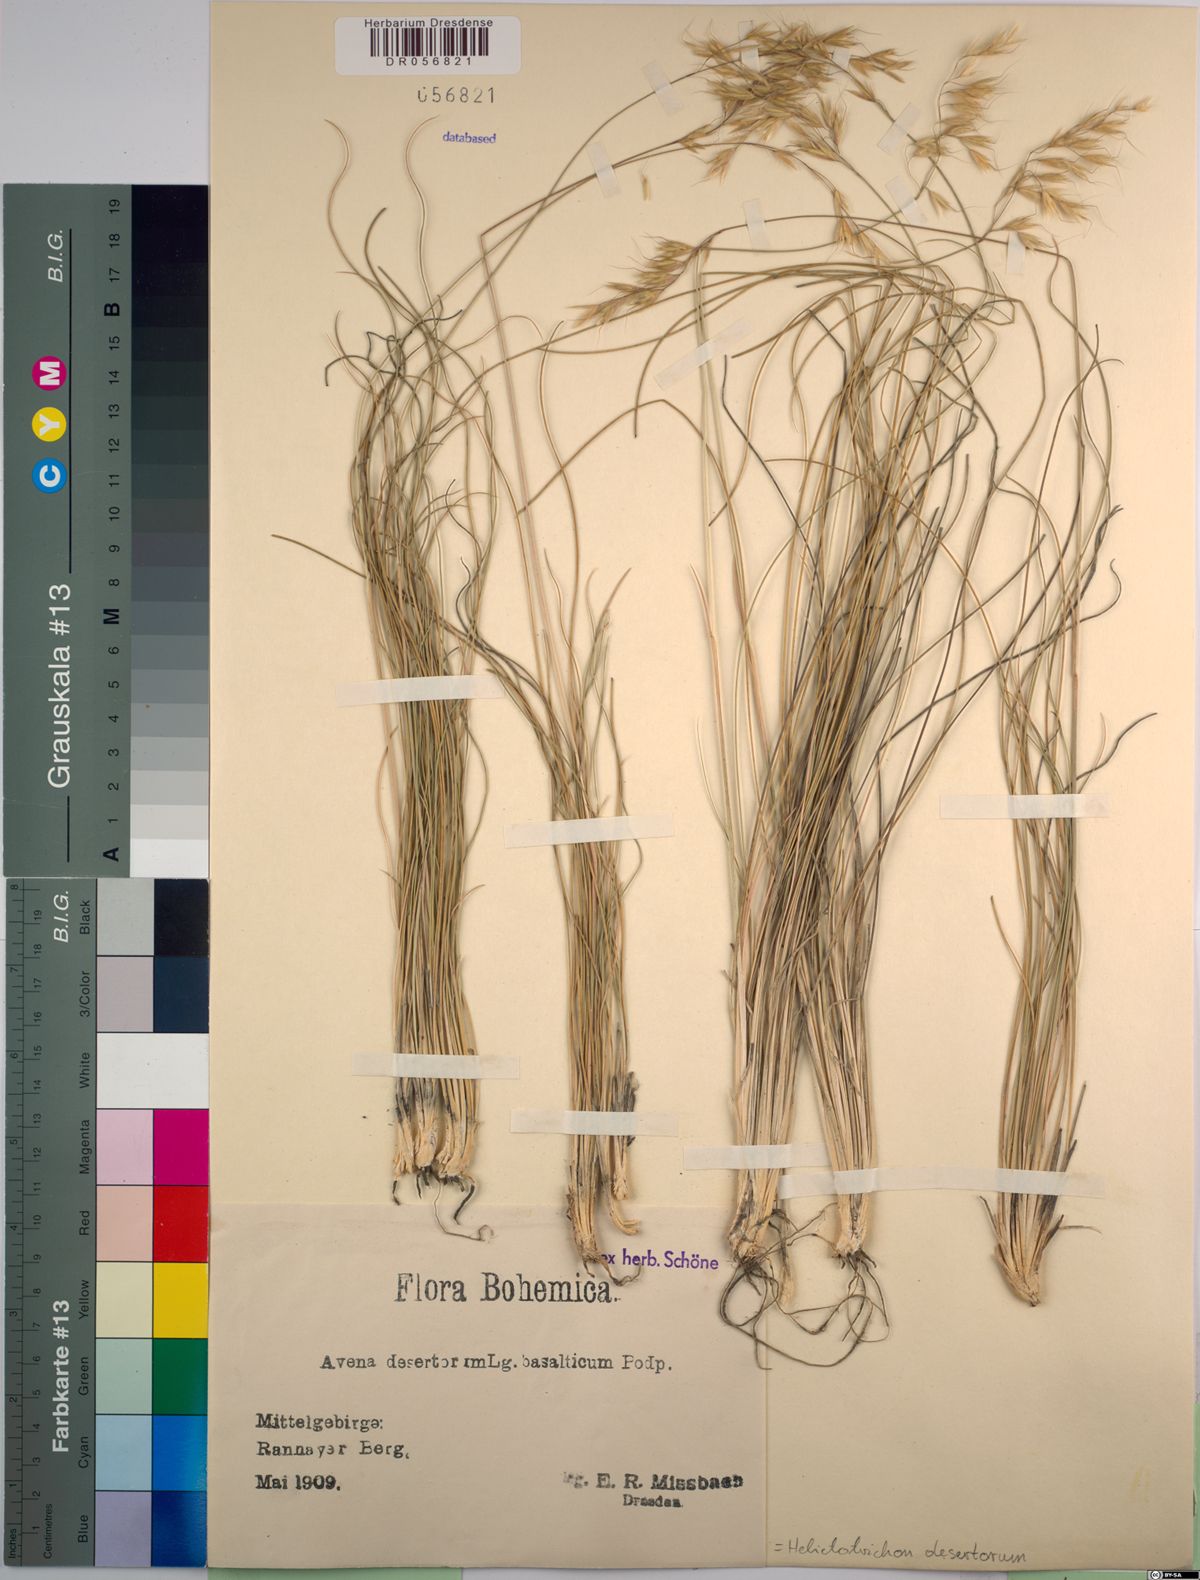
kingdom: Plantae
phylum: Tracheophyta
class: Liliopsida
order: Poales
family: Poaceae
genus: Helictotrichon
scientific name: Helictotrichon desertorum
